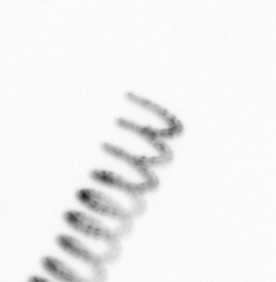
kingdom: Chromista
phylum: Ochrophyta
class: Bacillariophyceae
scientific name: Bacillariophyceae
